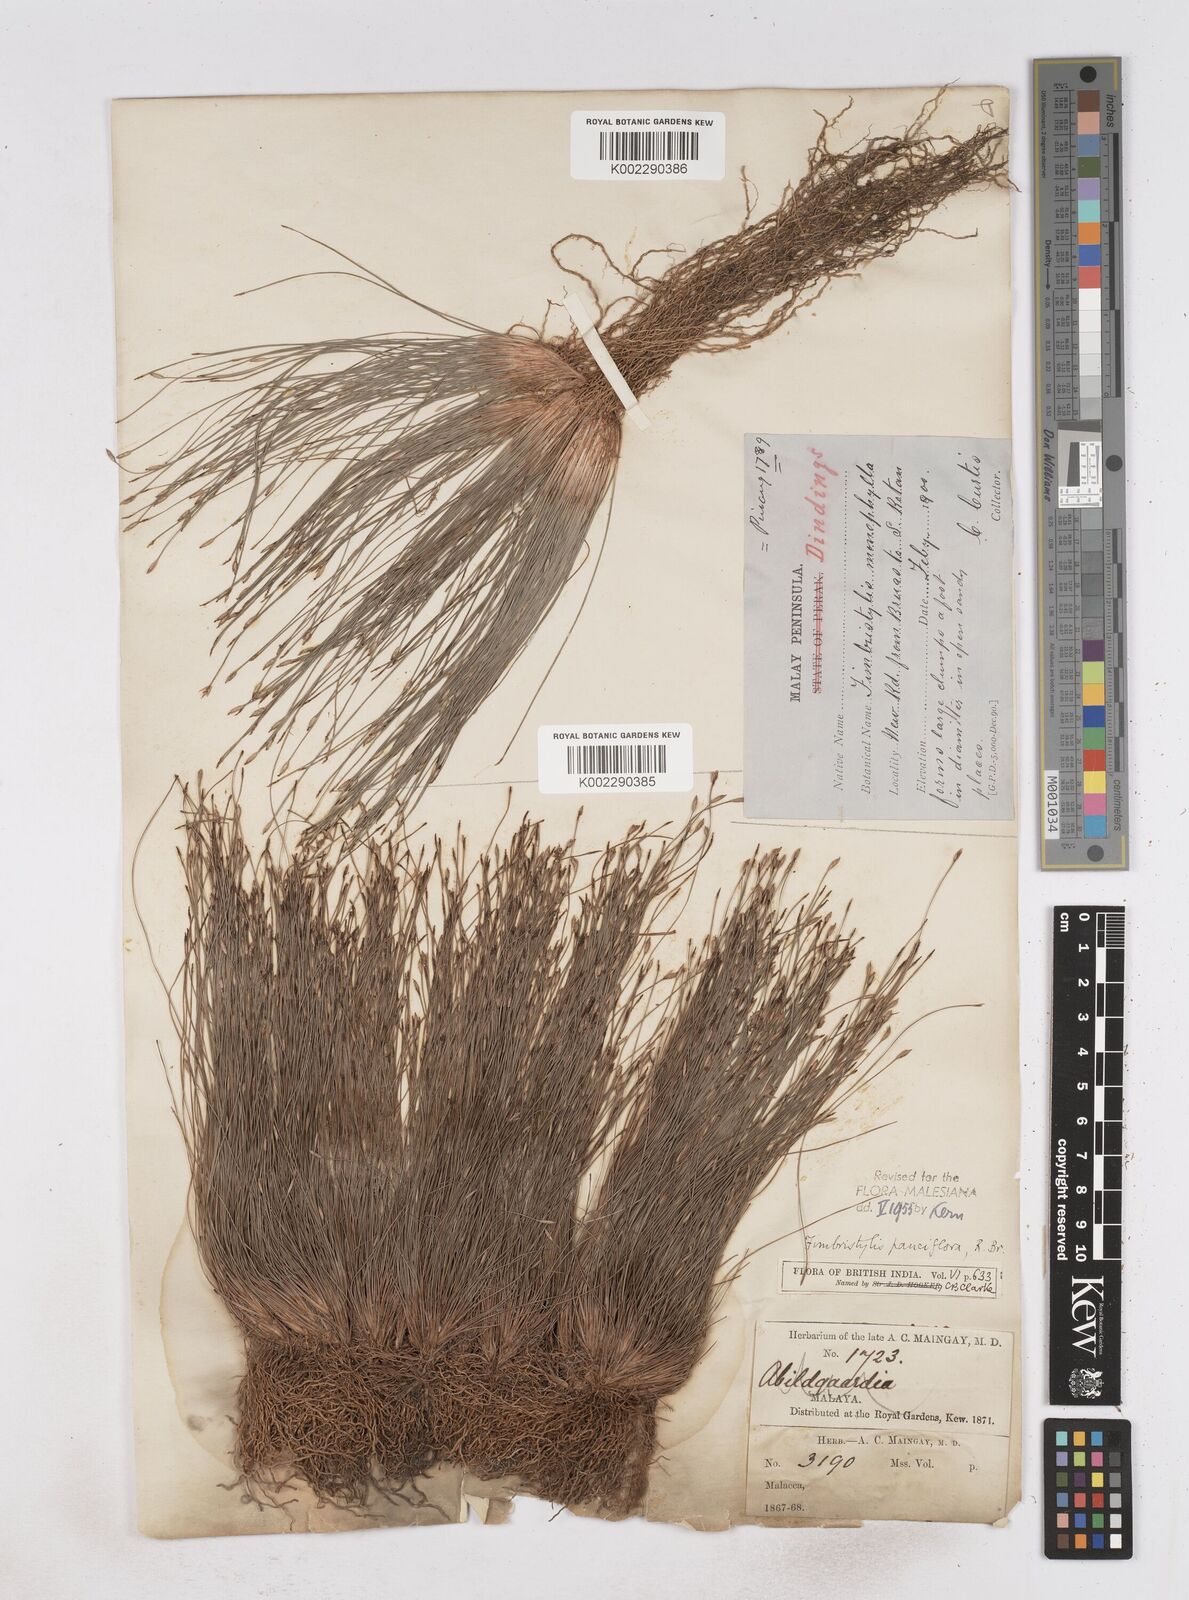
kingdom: Plantae
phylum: Tracheophyta
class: Liliopsida
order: Poales
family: Cyperaceae
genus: Fimbristylis
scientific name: Fimbristylis pauciflora
